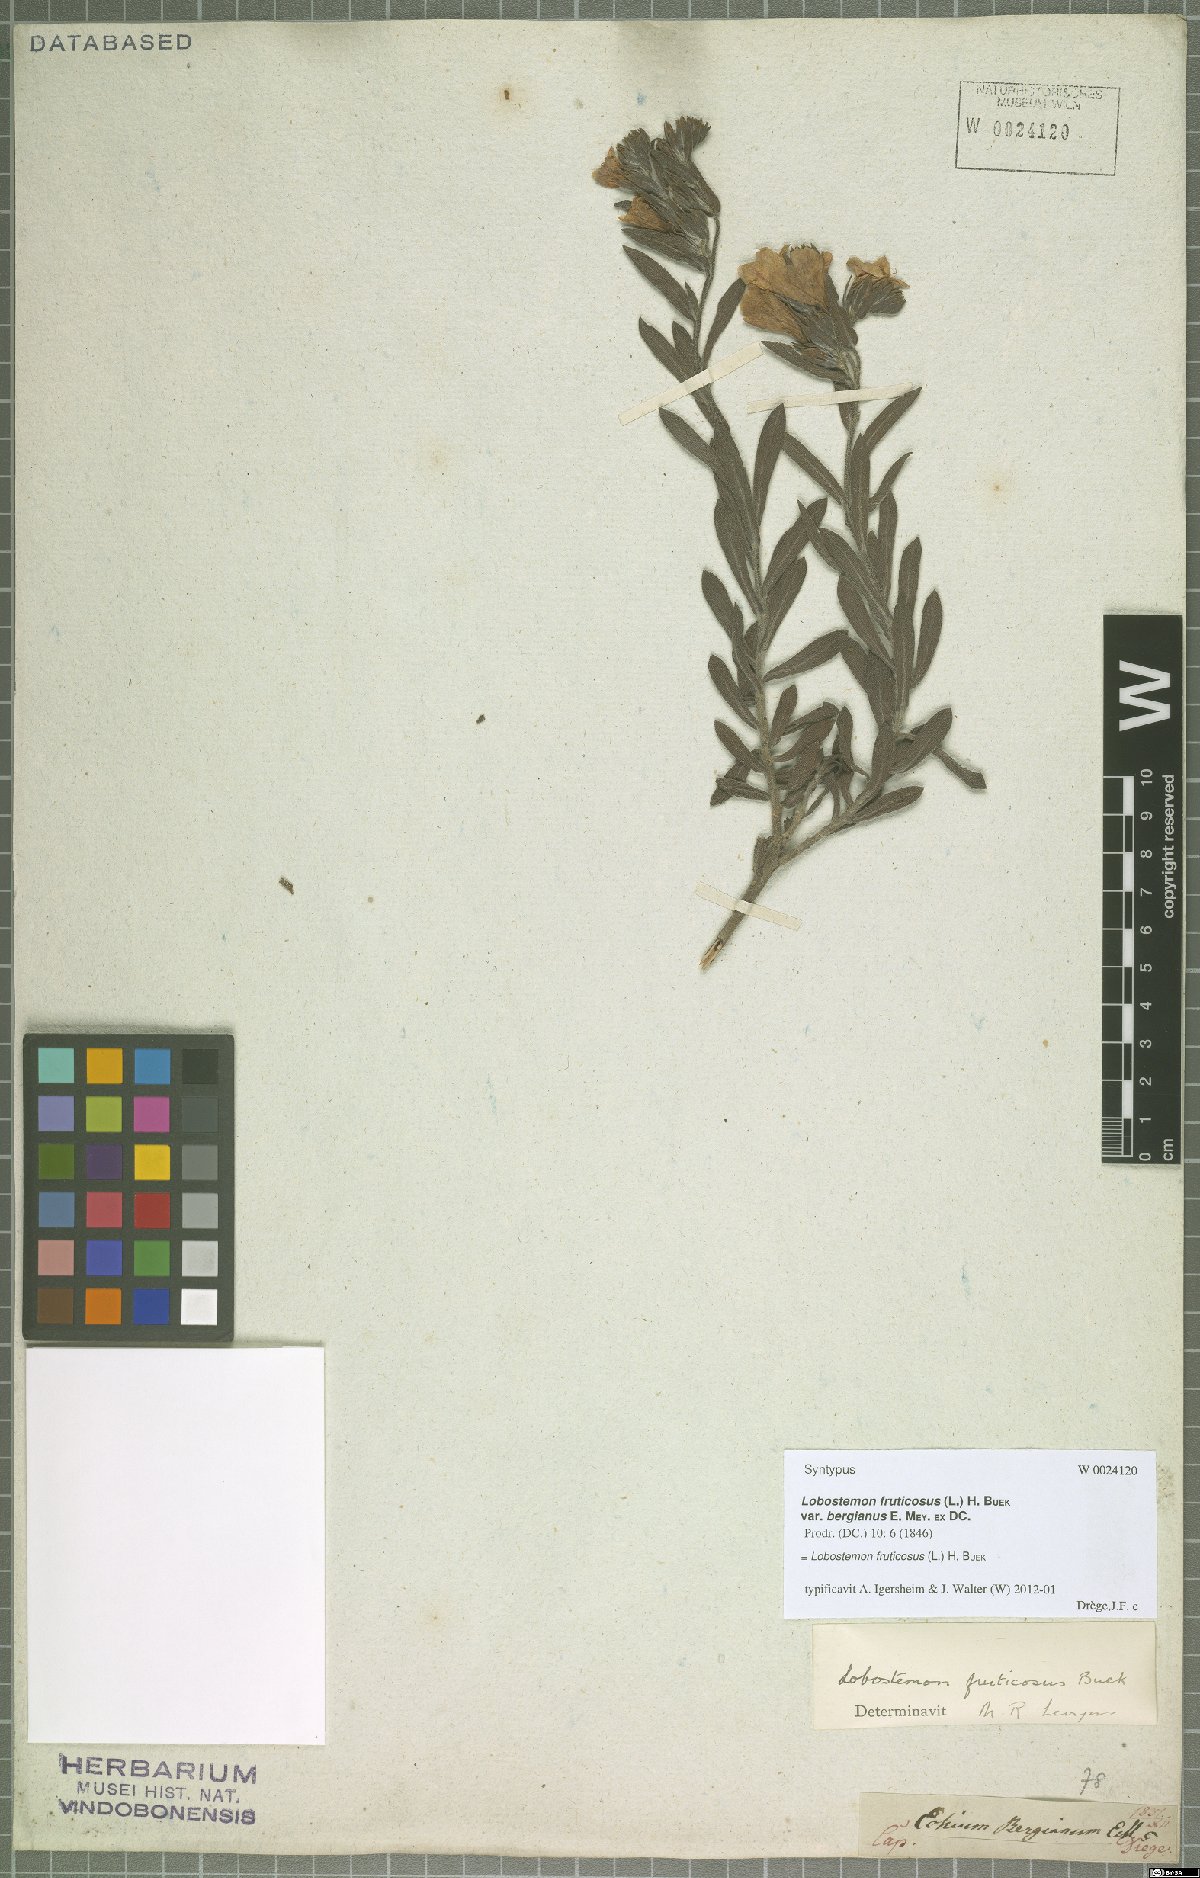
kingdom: Plantae
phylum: Tracheophyta
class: Magnoliopsida
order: Boraginales
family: Boraginaceae
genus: Lobostemon
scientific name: Lobostemon fruticosus
